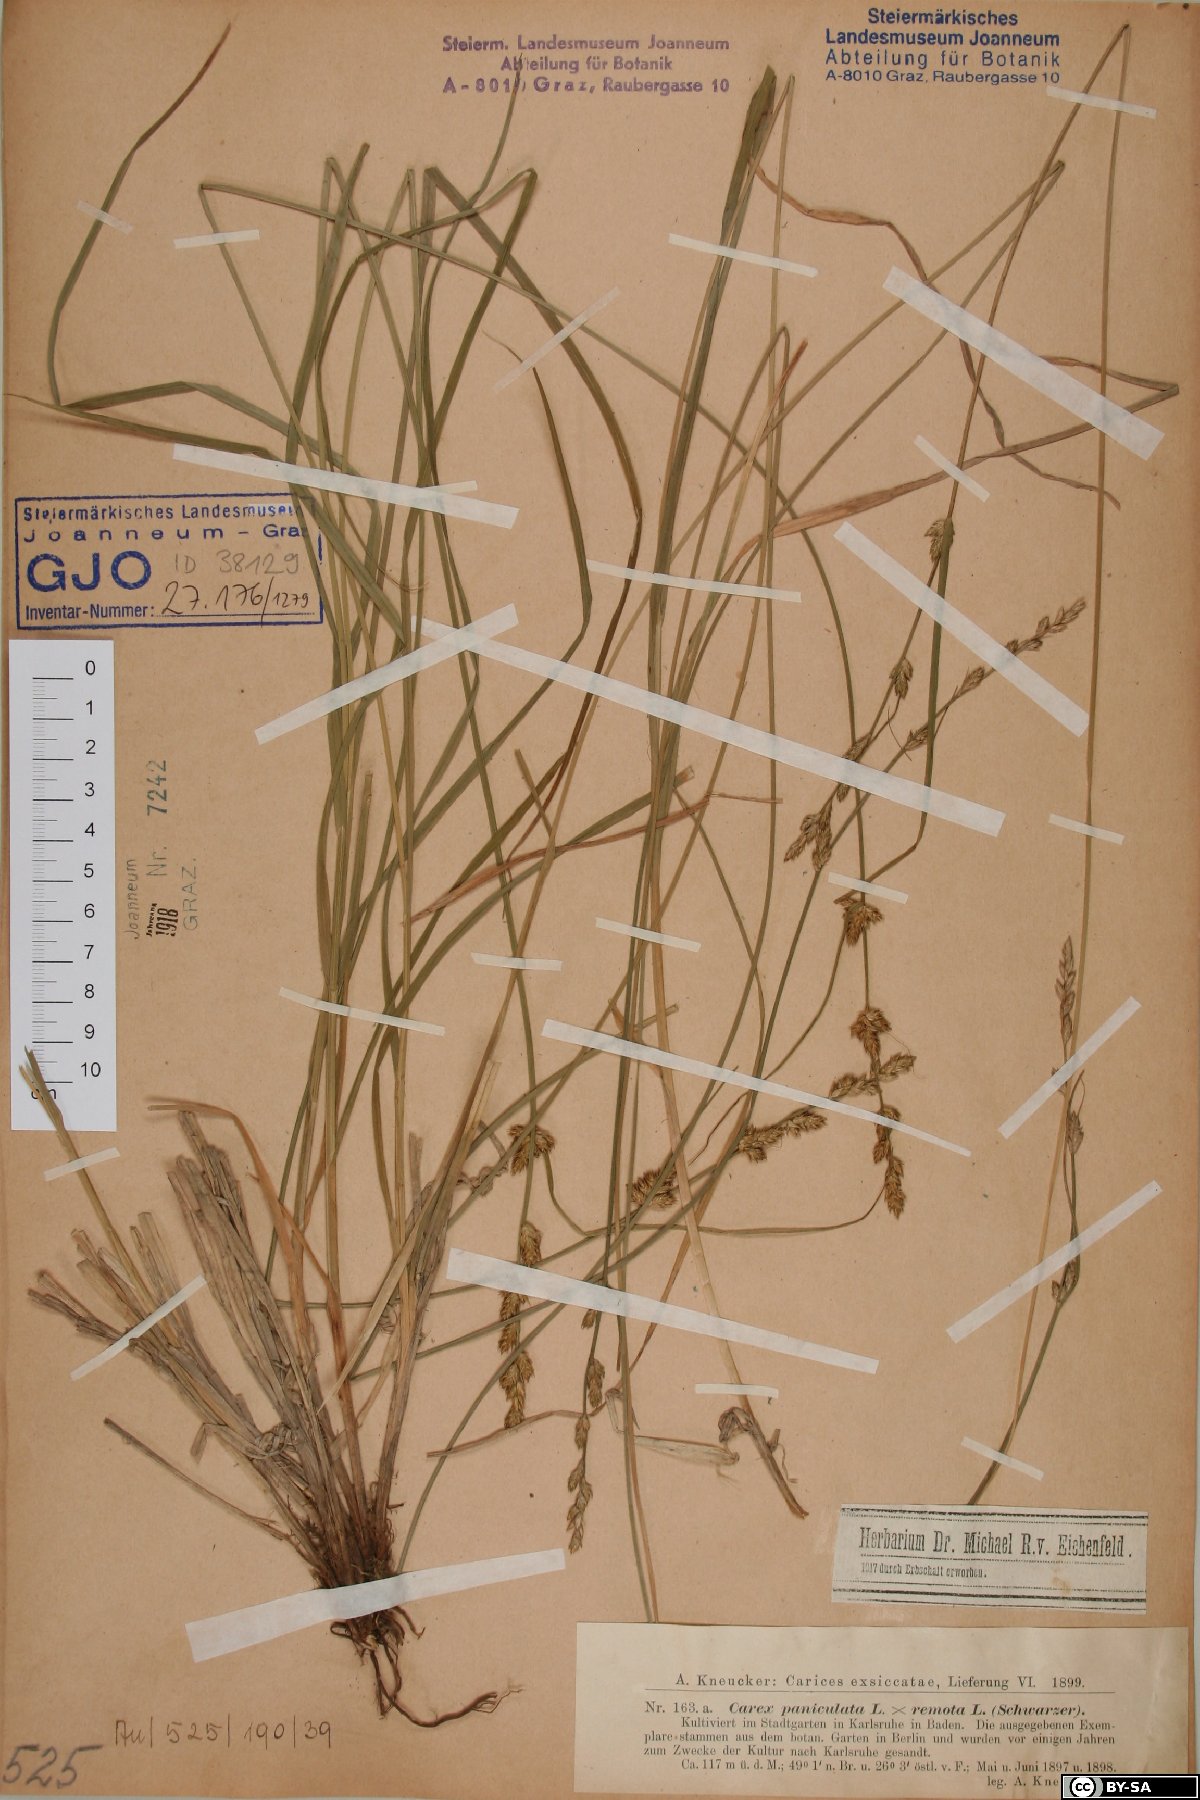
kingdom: Plantae
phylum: Tracheophyta
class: Liliopsida
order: Poales
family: Cyperaceae
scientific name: Cyperaceae
